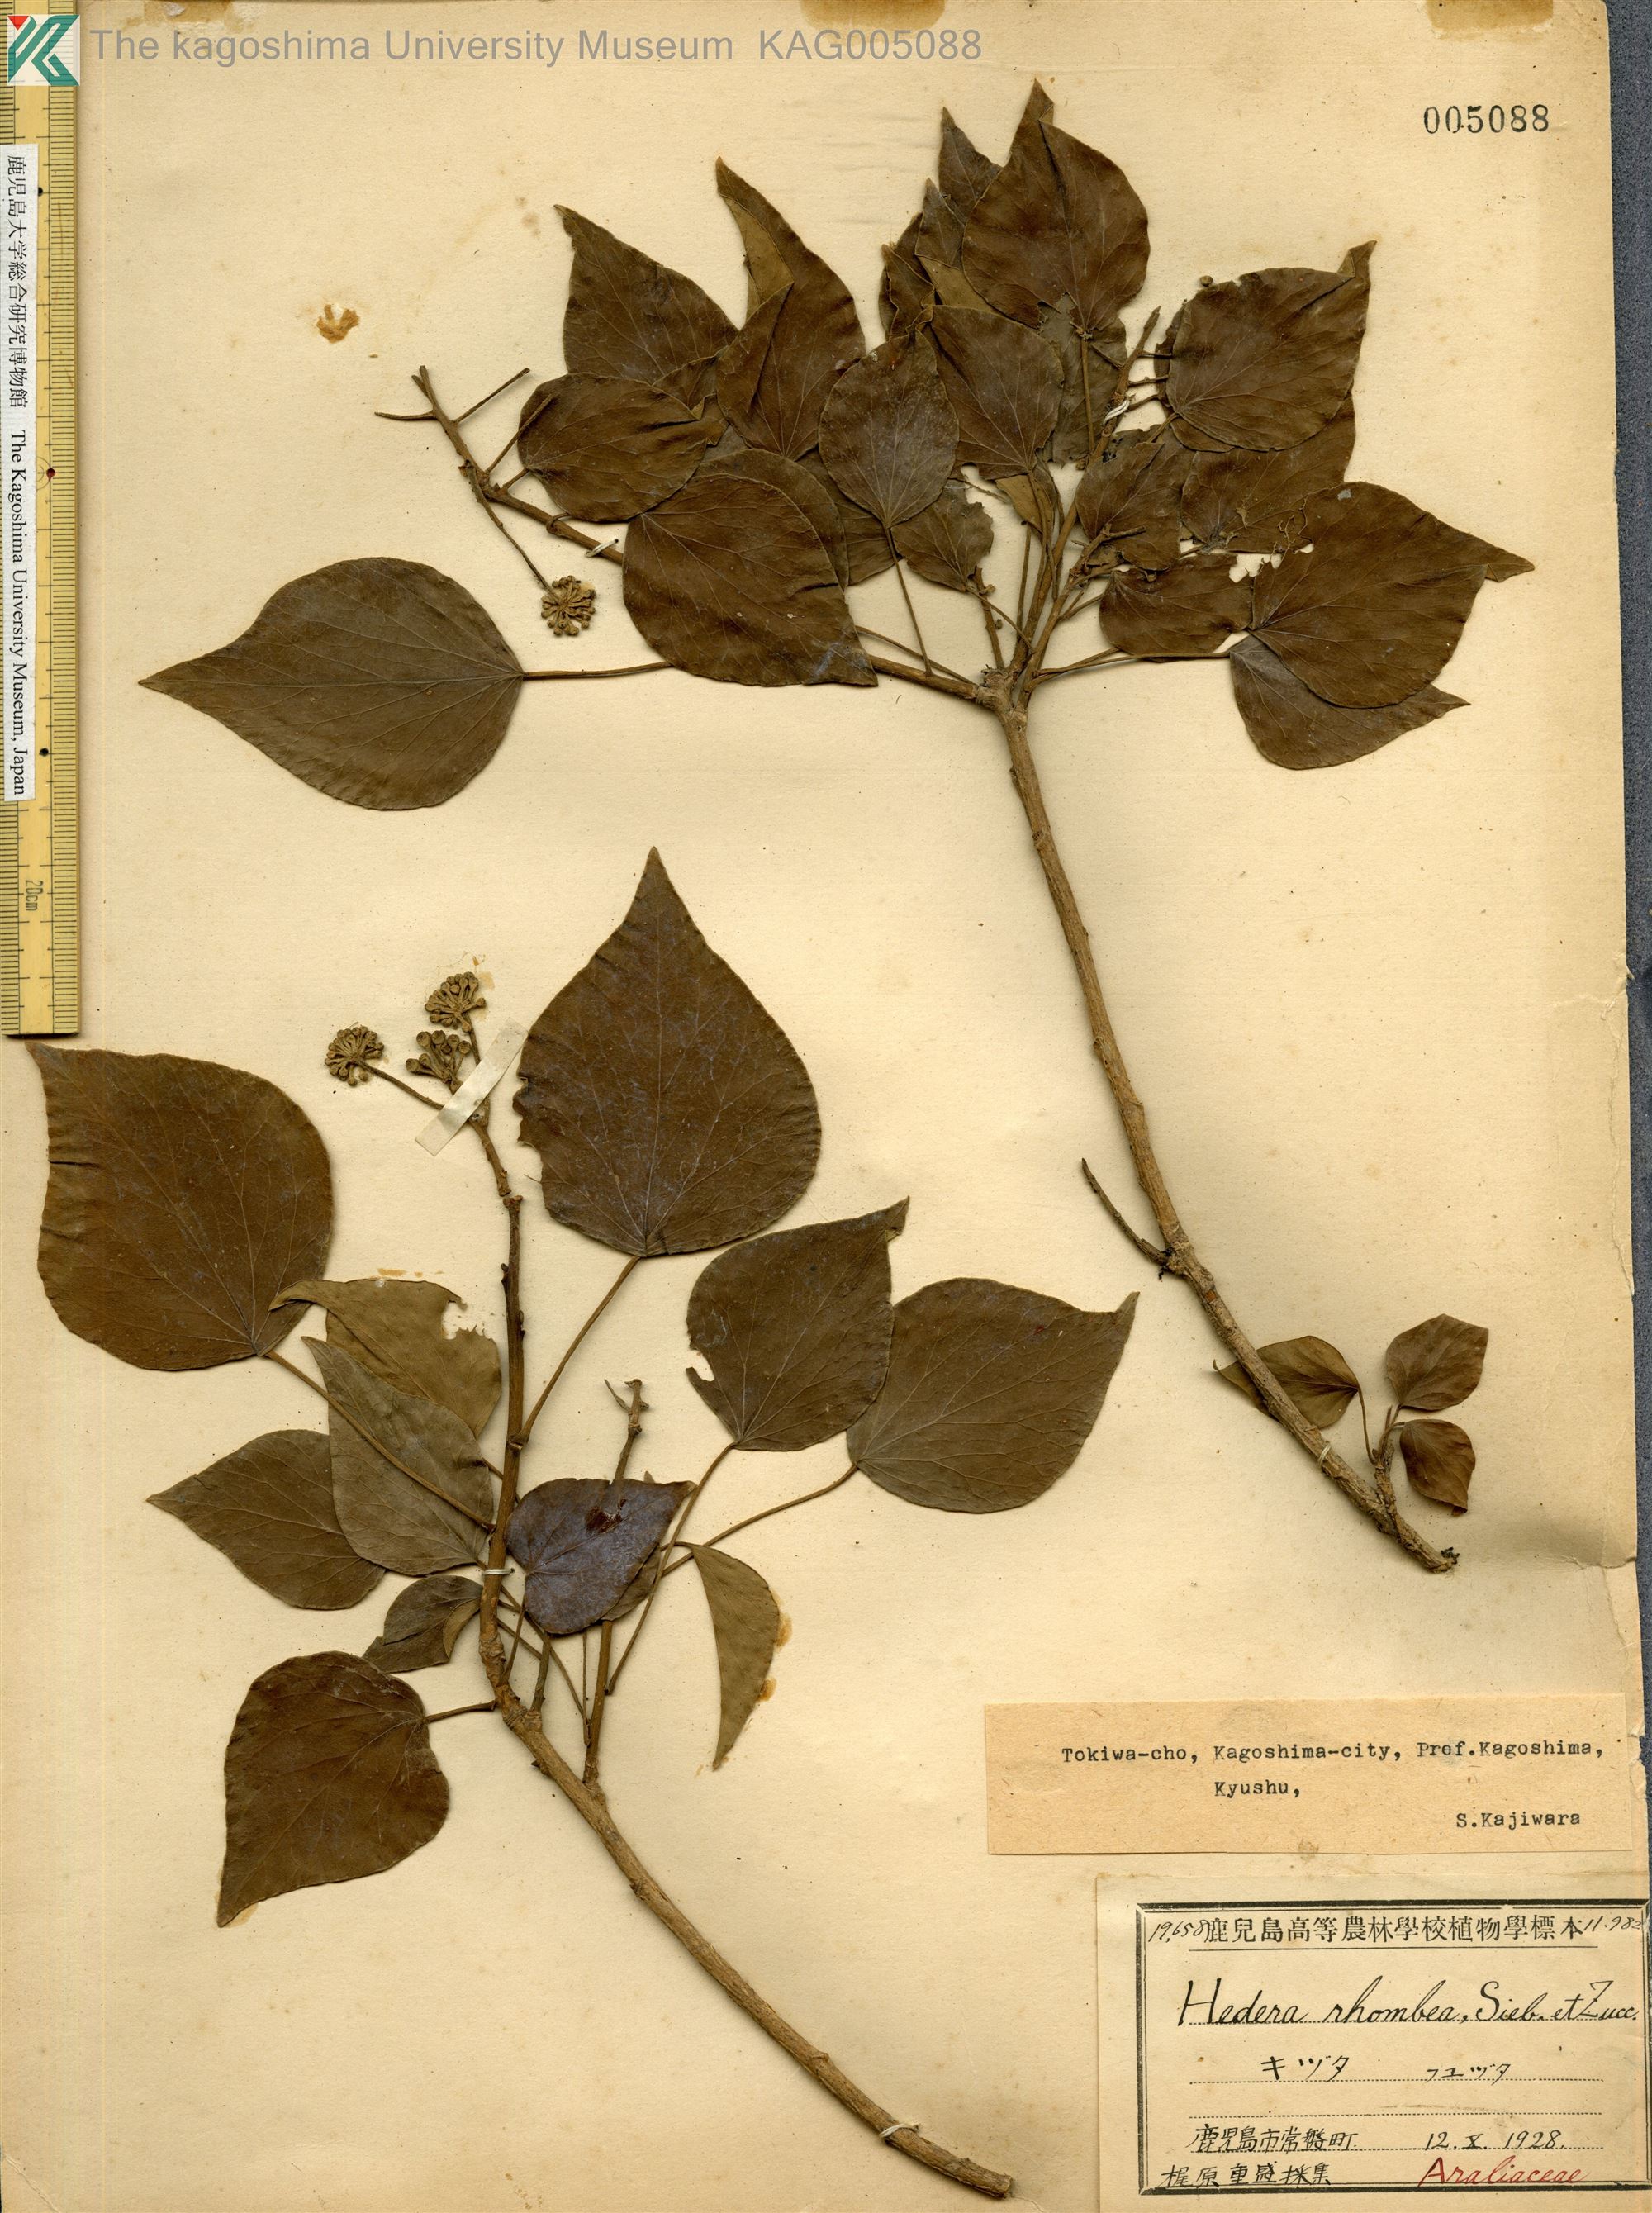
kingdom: Plantae
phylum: Tracheophyta
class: Magnoliopsida
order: Apiales
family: Araliaceae
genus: Hedera
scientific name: Hedera rhombea
